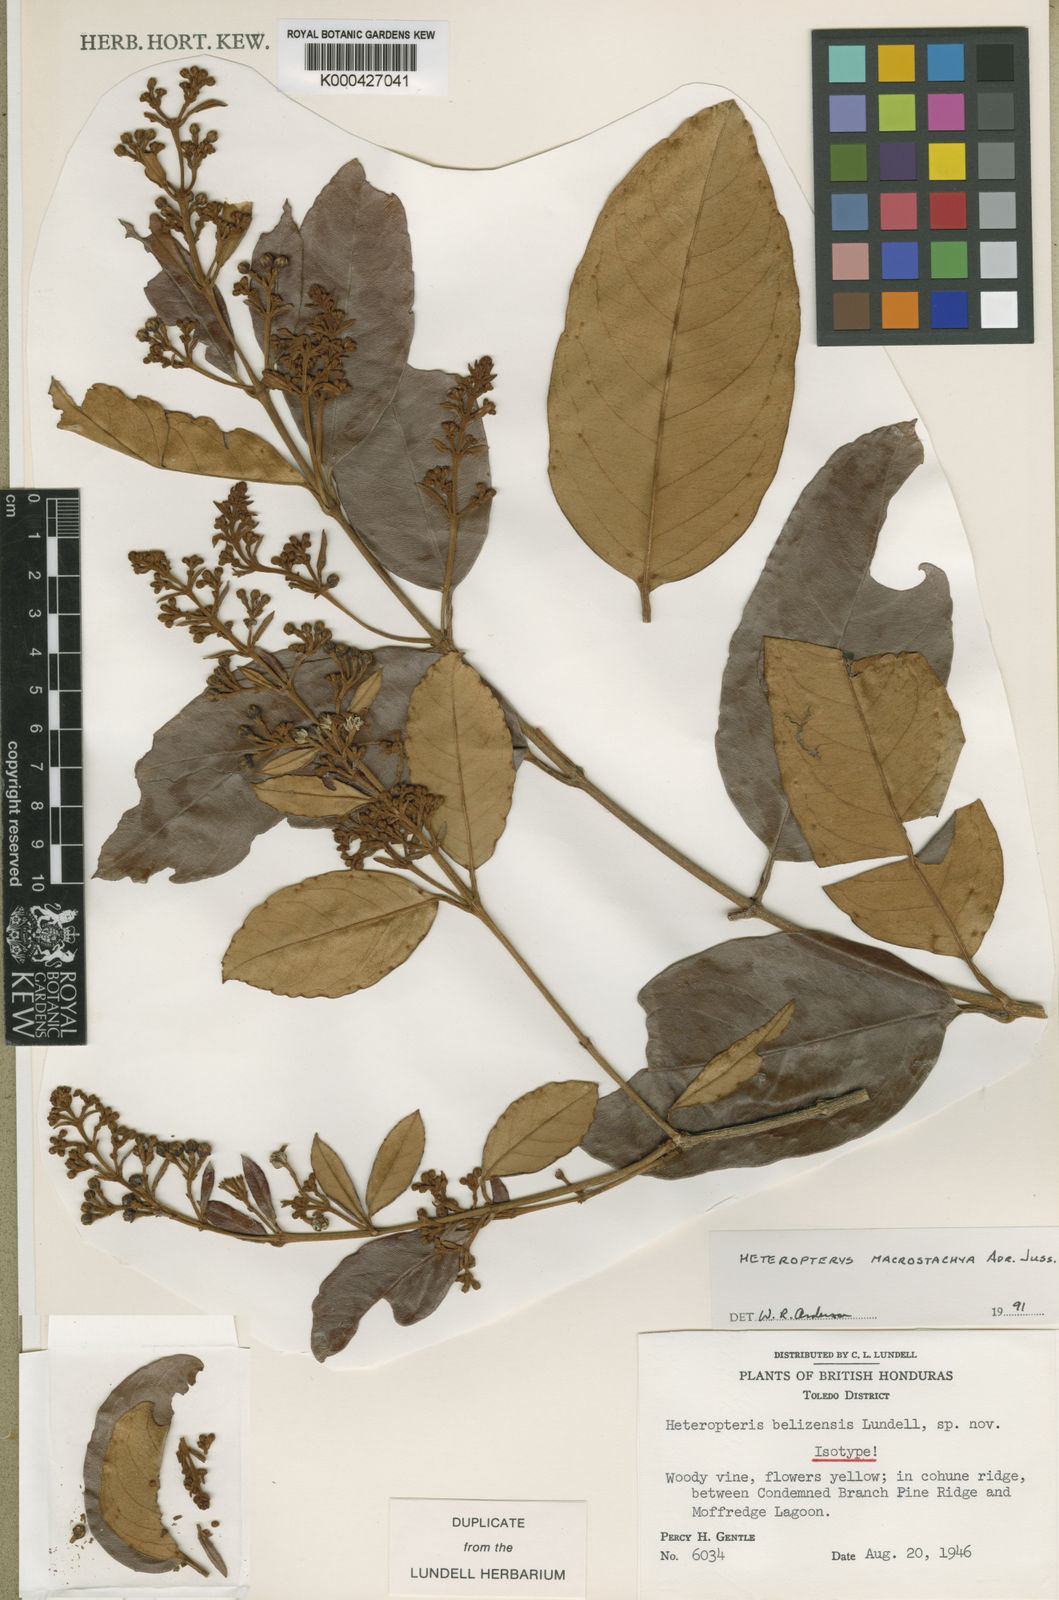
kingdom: Plantae
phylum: Tracheophyta
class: Magnoliopsida
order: Malpighiales
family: Malpighiaceae
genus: Heteropterys
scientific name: Heteropterys macrostachya
